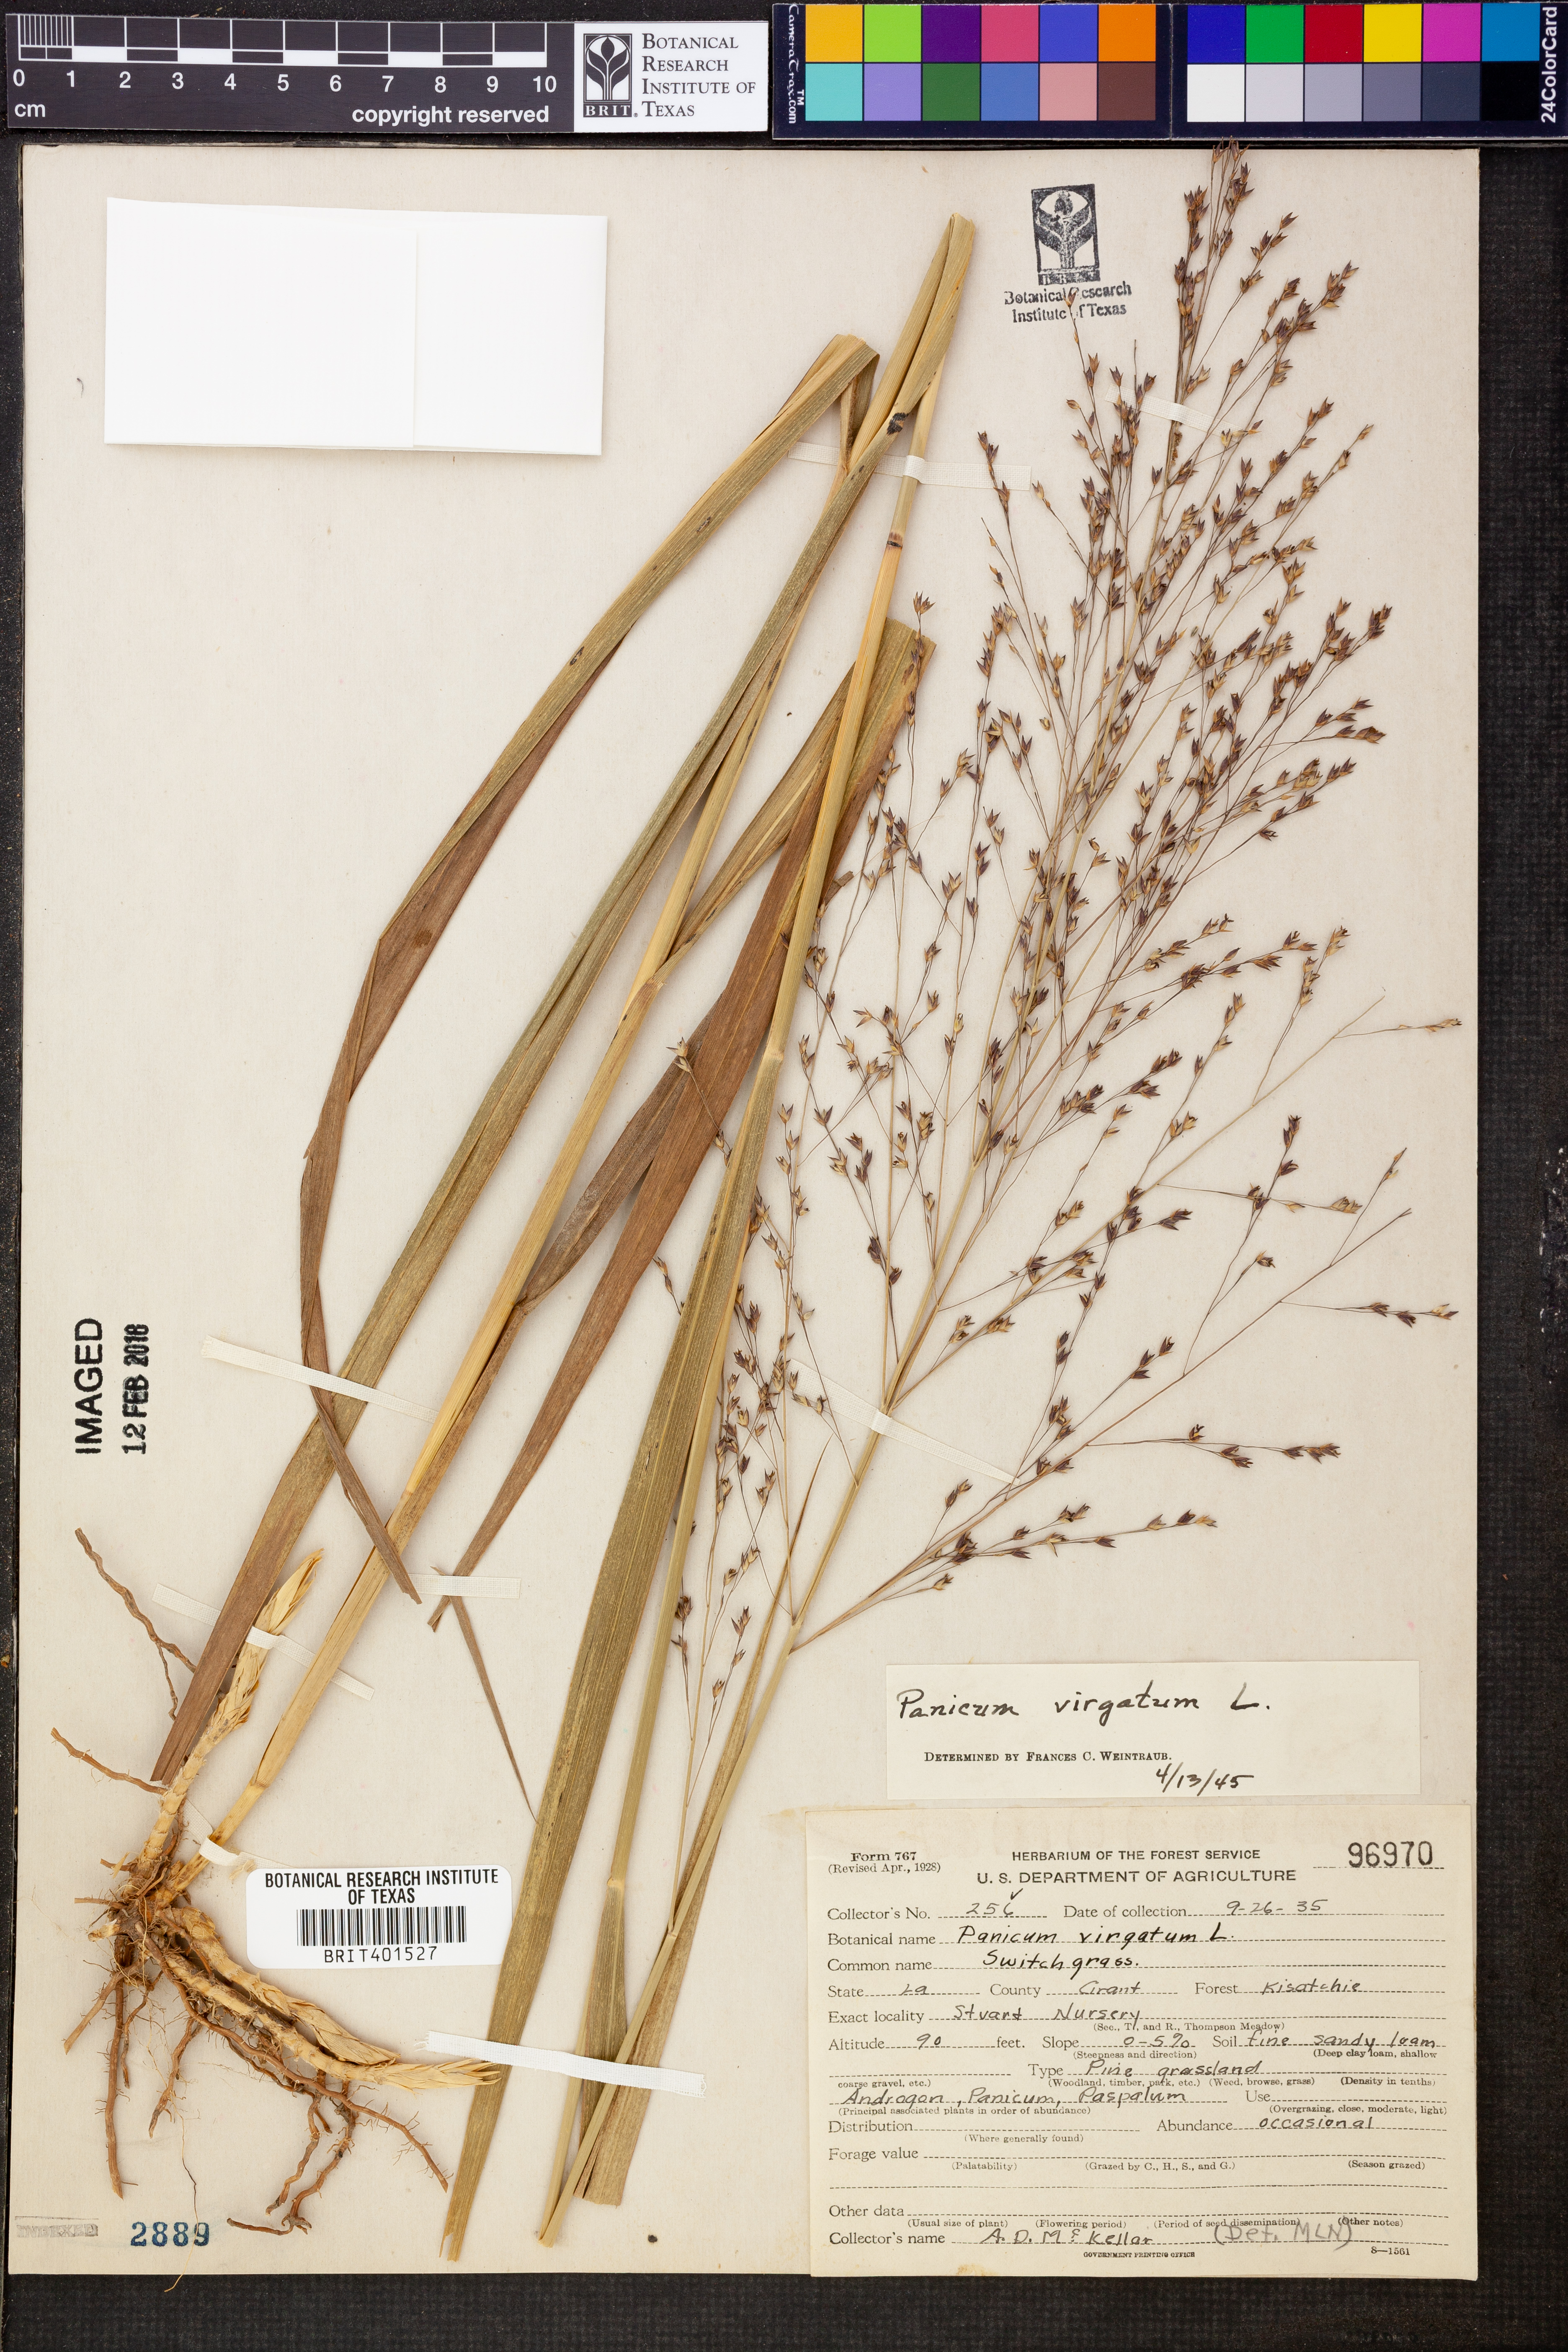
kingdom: Plantae
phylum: Tracheophyta
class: Liliopsida
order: Poales
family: Poaceae
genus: Panicum
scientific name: Panicum virgatum
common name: Switchgrass
